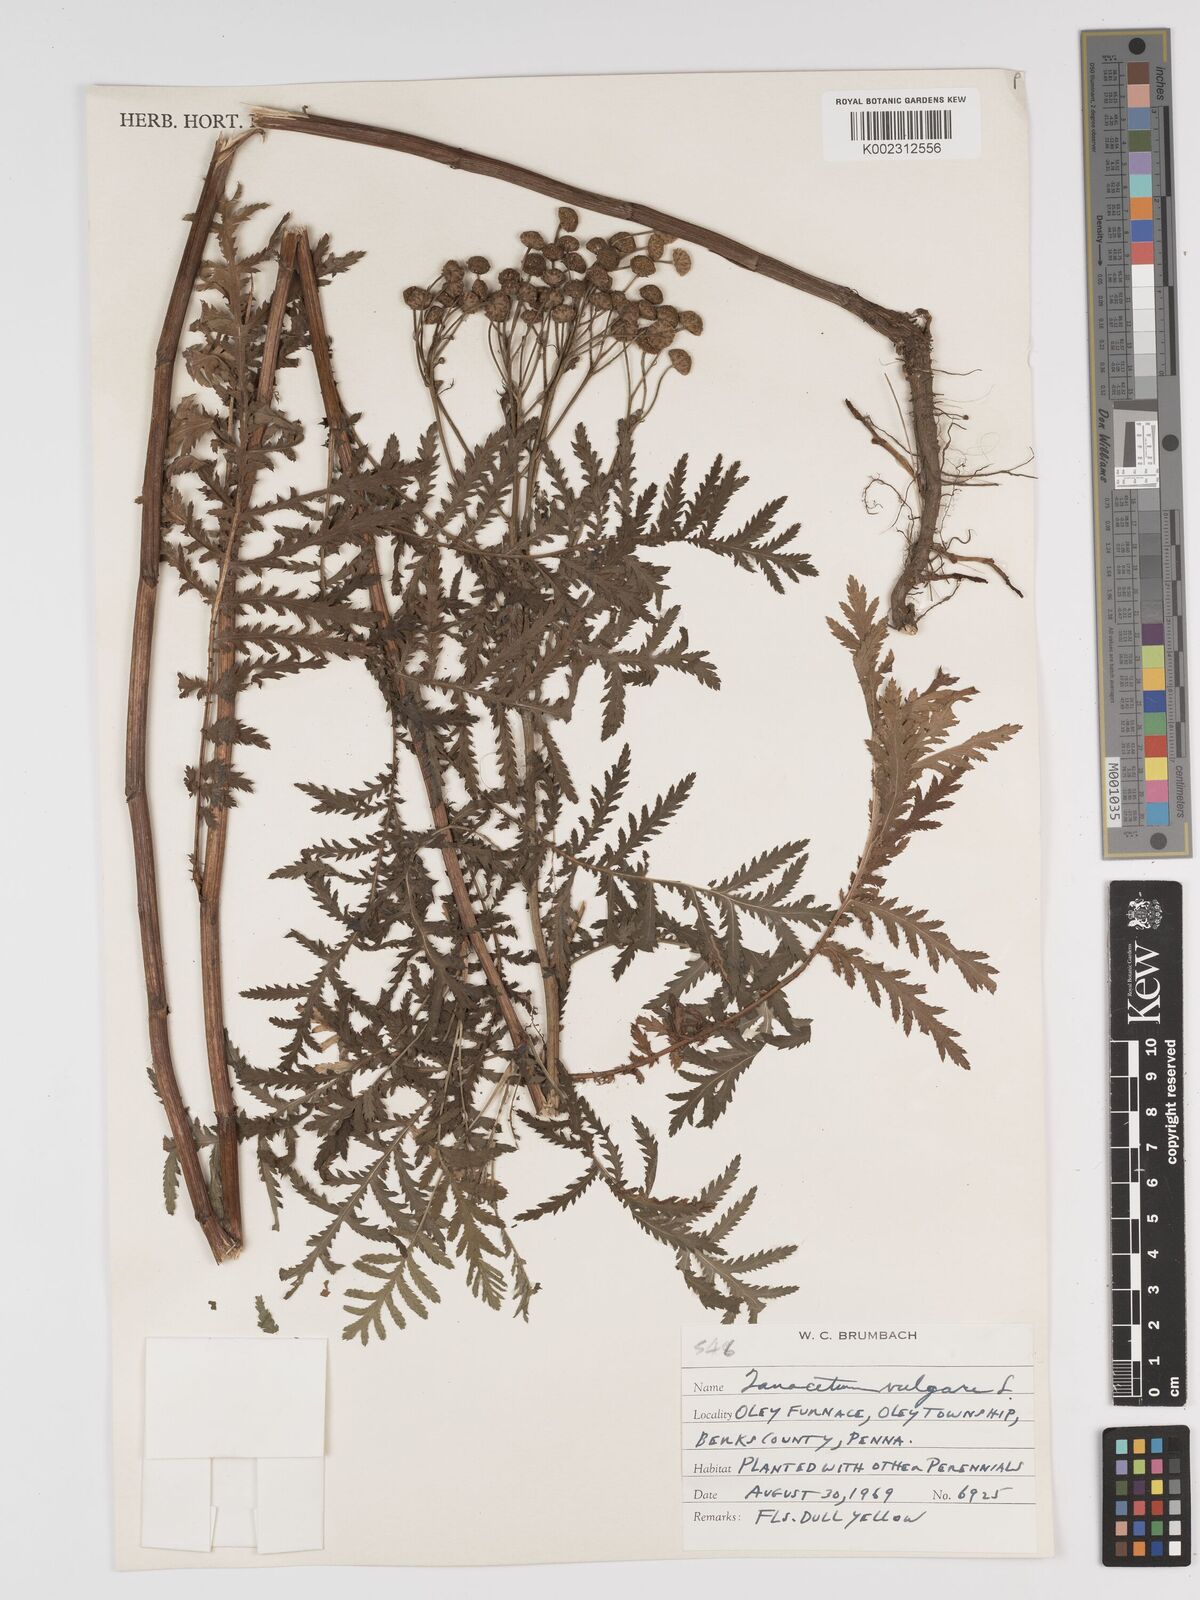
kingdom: Plantae
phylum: Tracheophyta
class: Magnoliopsida
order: Asterales
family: Asteraceae
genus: Tanacetum
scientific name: Tanacetum vulgare
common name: Common tansy
